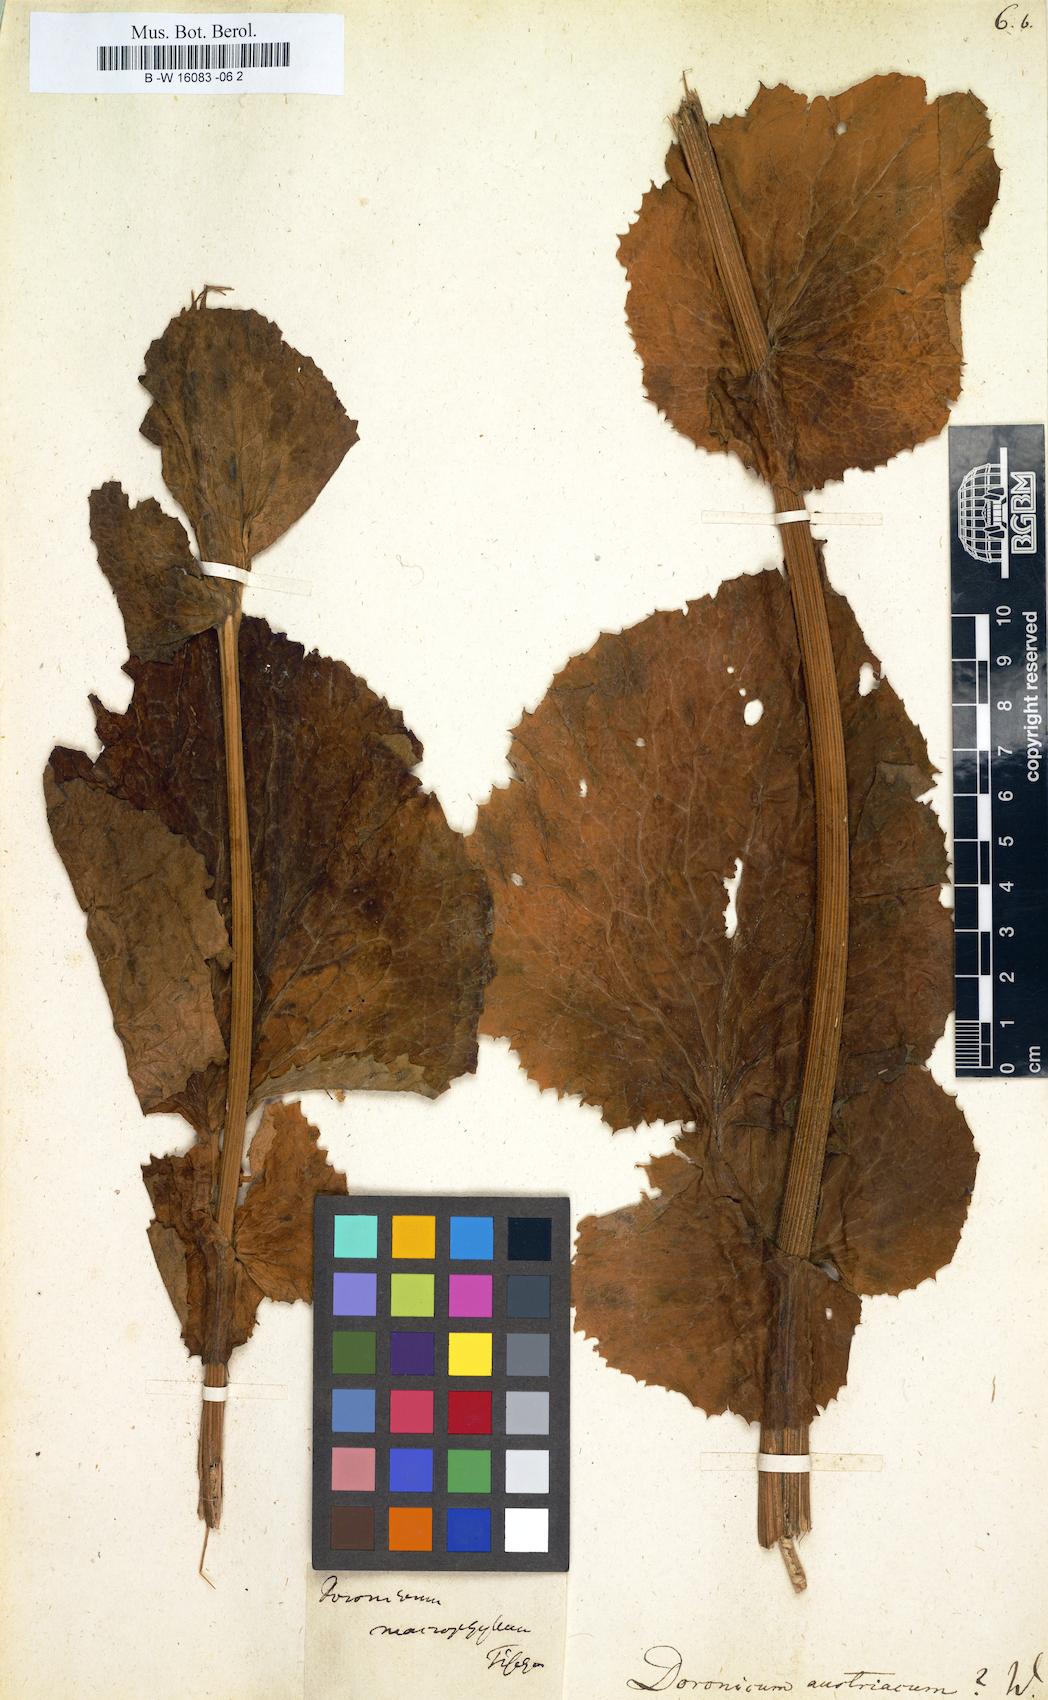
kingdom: Plantae
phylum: Tracheophyta
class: Magnoliopsida
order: Asterales
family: Asteraceae
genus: Doronicum
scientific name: Doronicum austriacum
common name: Austrian leopard's-bane
